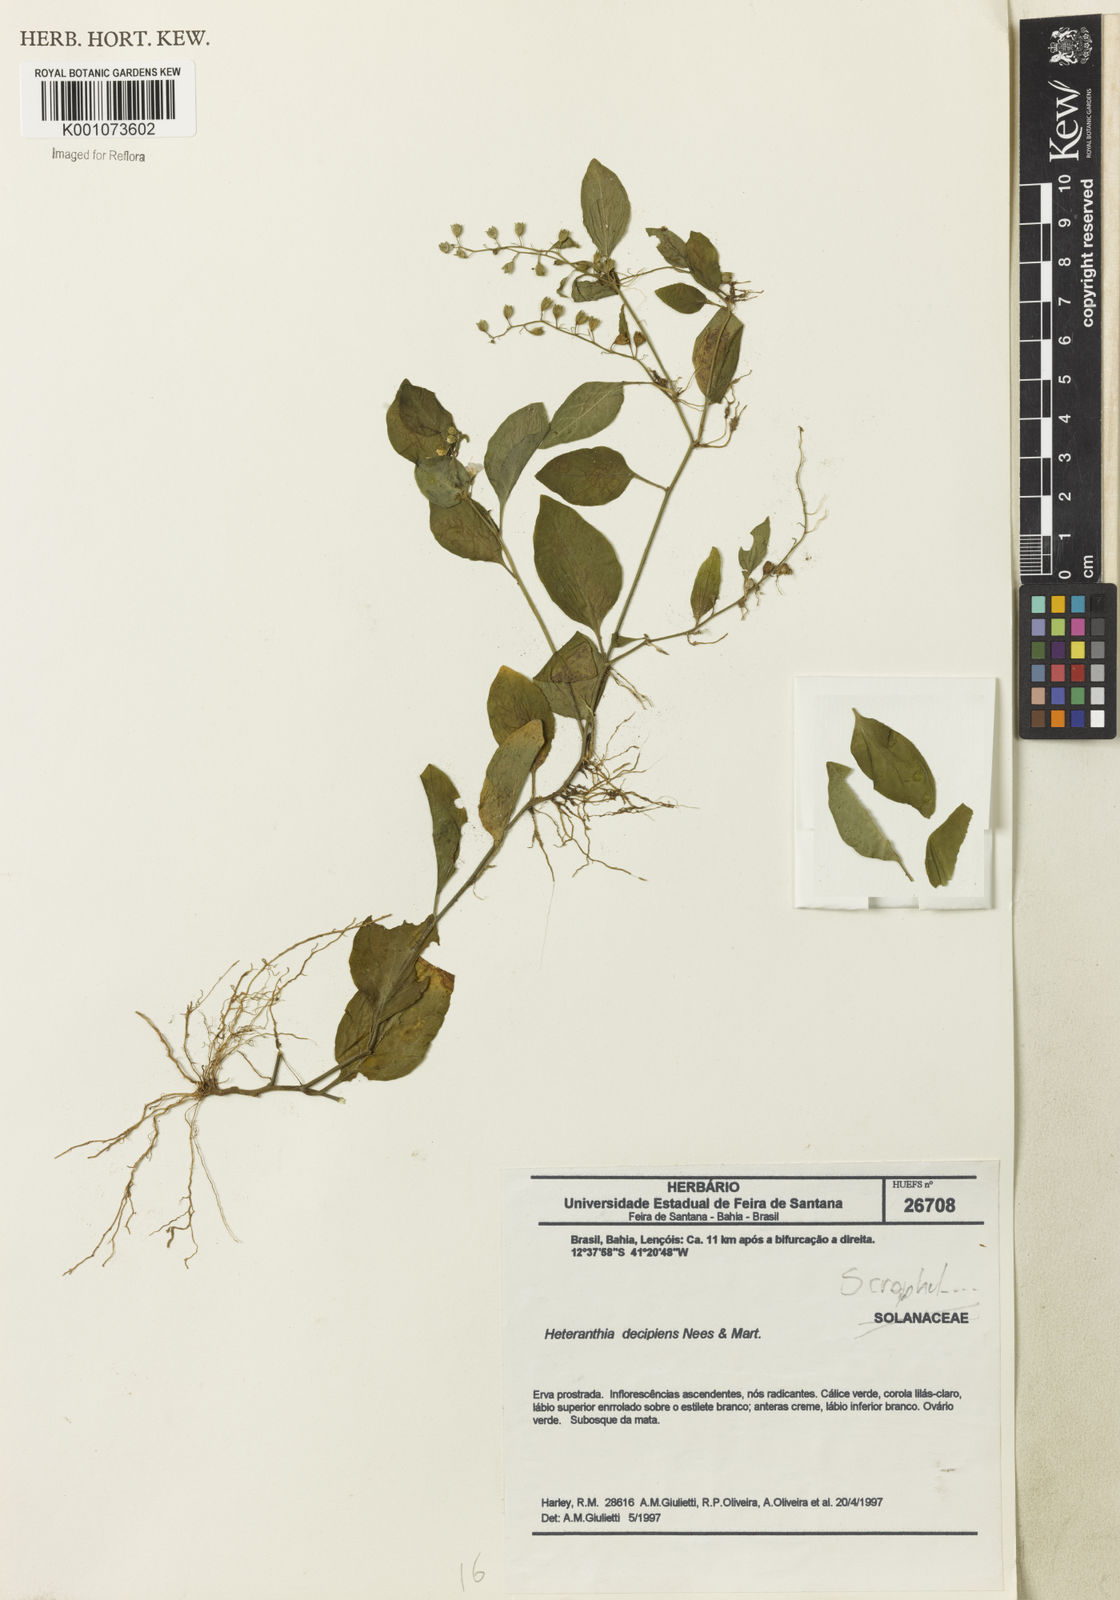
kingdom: Plantae
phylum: Tracheophyta
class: Magnoliopsida
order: Solanales
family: Solanaceae
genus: Heteranthia
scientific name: Heteranthia decipiens
